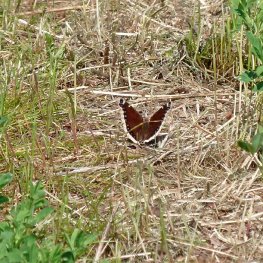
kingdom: Animalia
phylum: Arthropoda
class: Insecta
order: Lepidoptera
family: Nymphalidae
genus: Nymphalis
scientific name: Nymphalis antiopa
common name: Mourning Cloak
